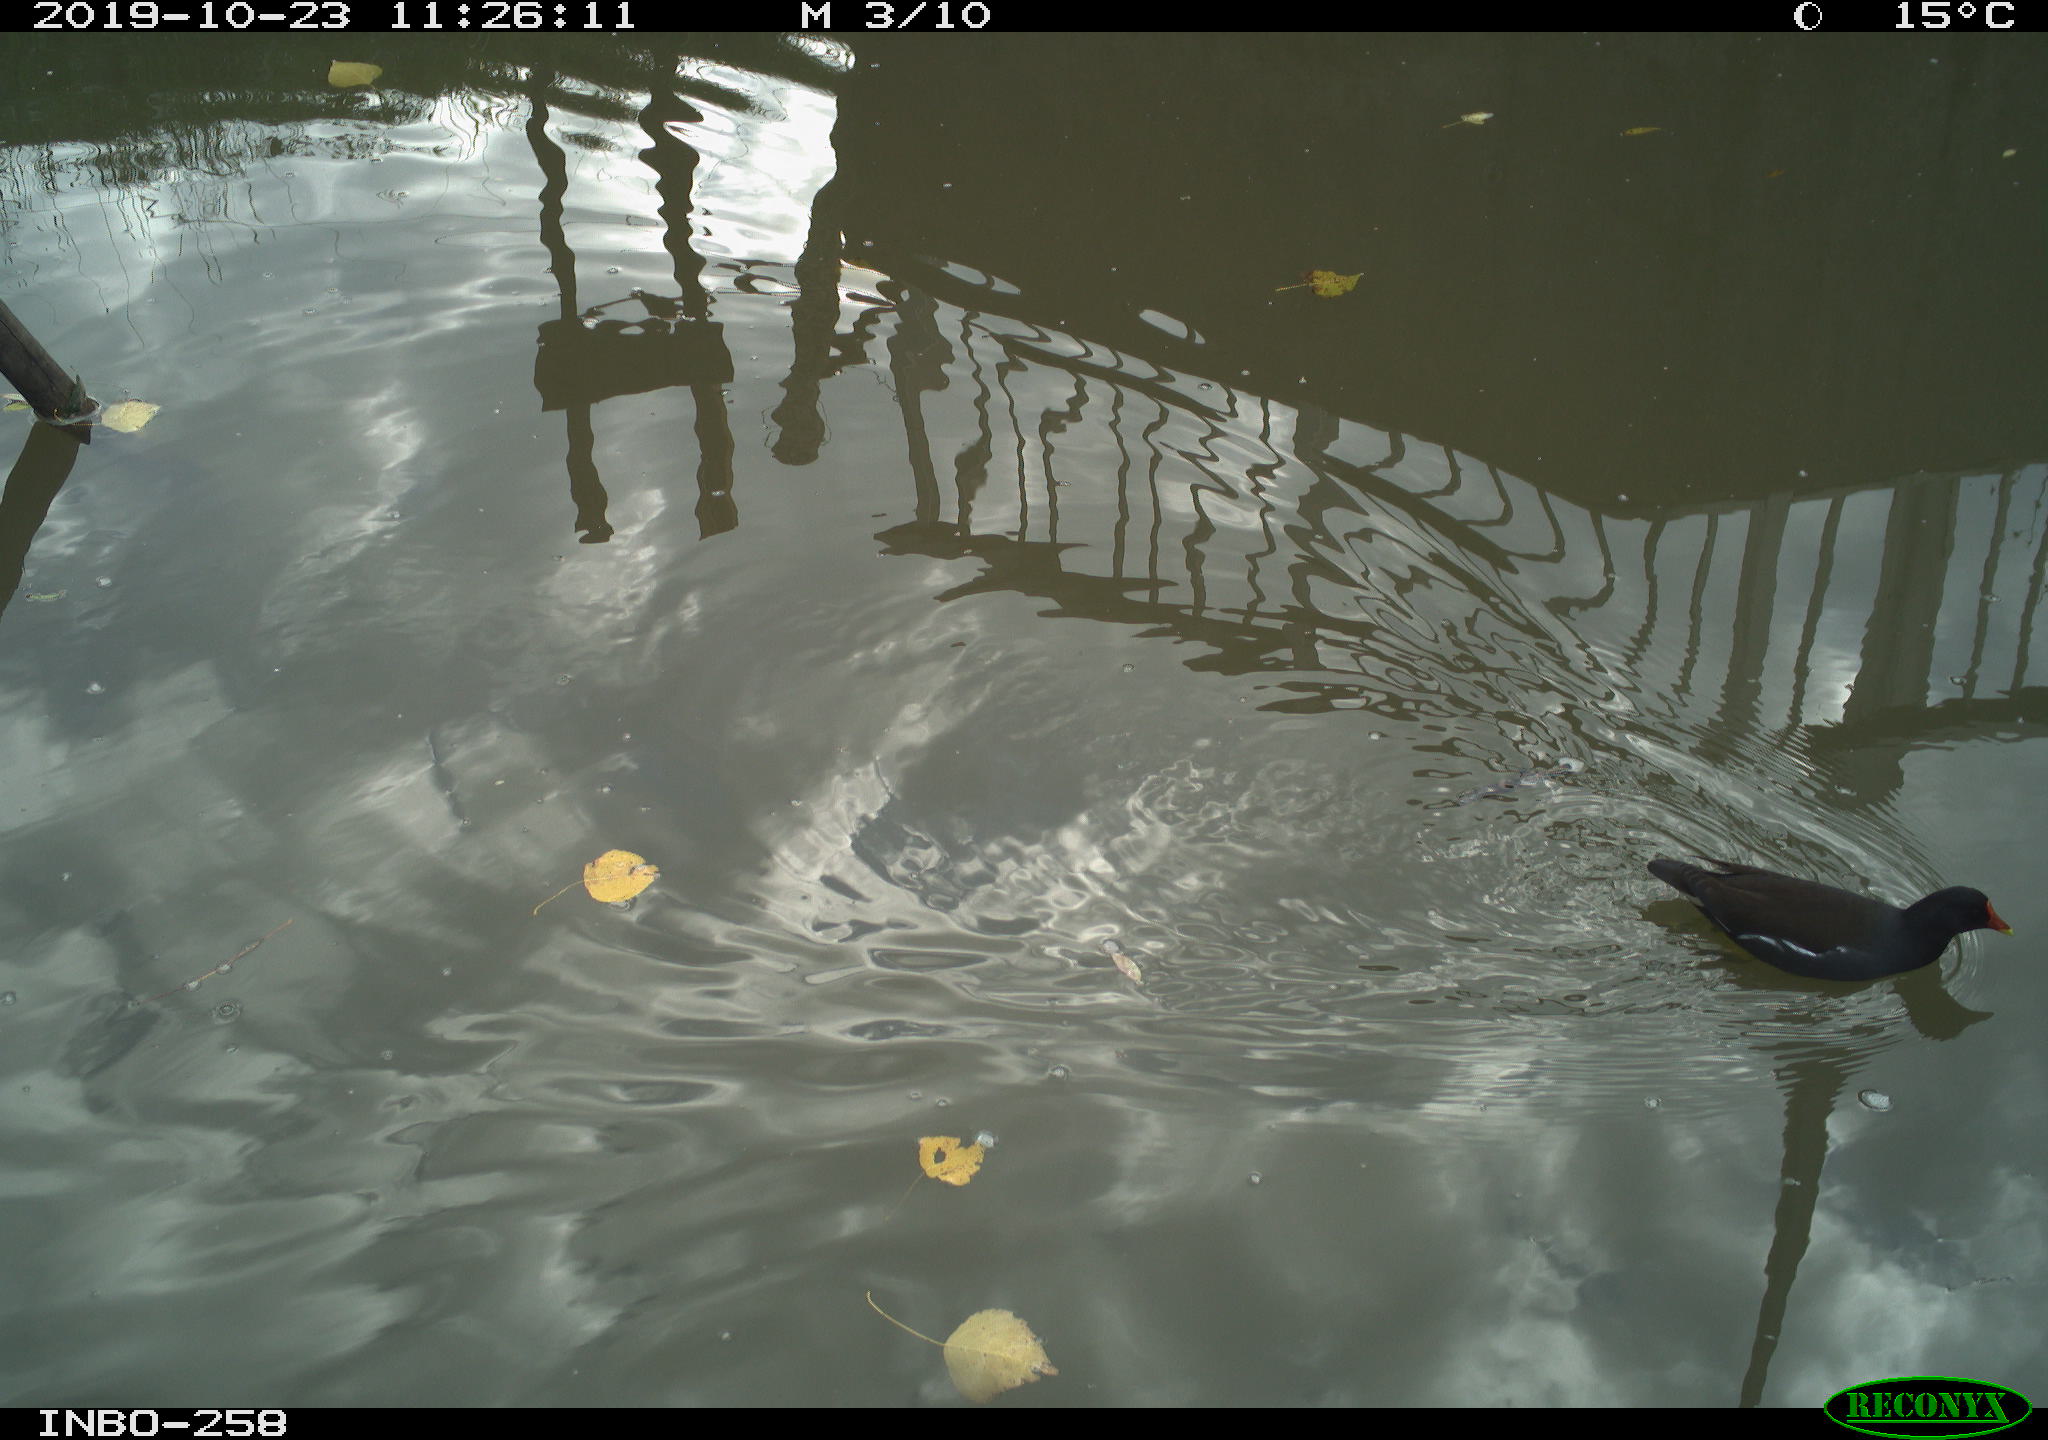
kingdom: Animalia
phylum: Chordata
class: Aves
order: Gruiformes
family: Rallidae
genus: Gallinula
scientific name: Gallinula chloropus
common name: Common moorhen
